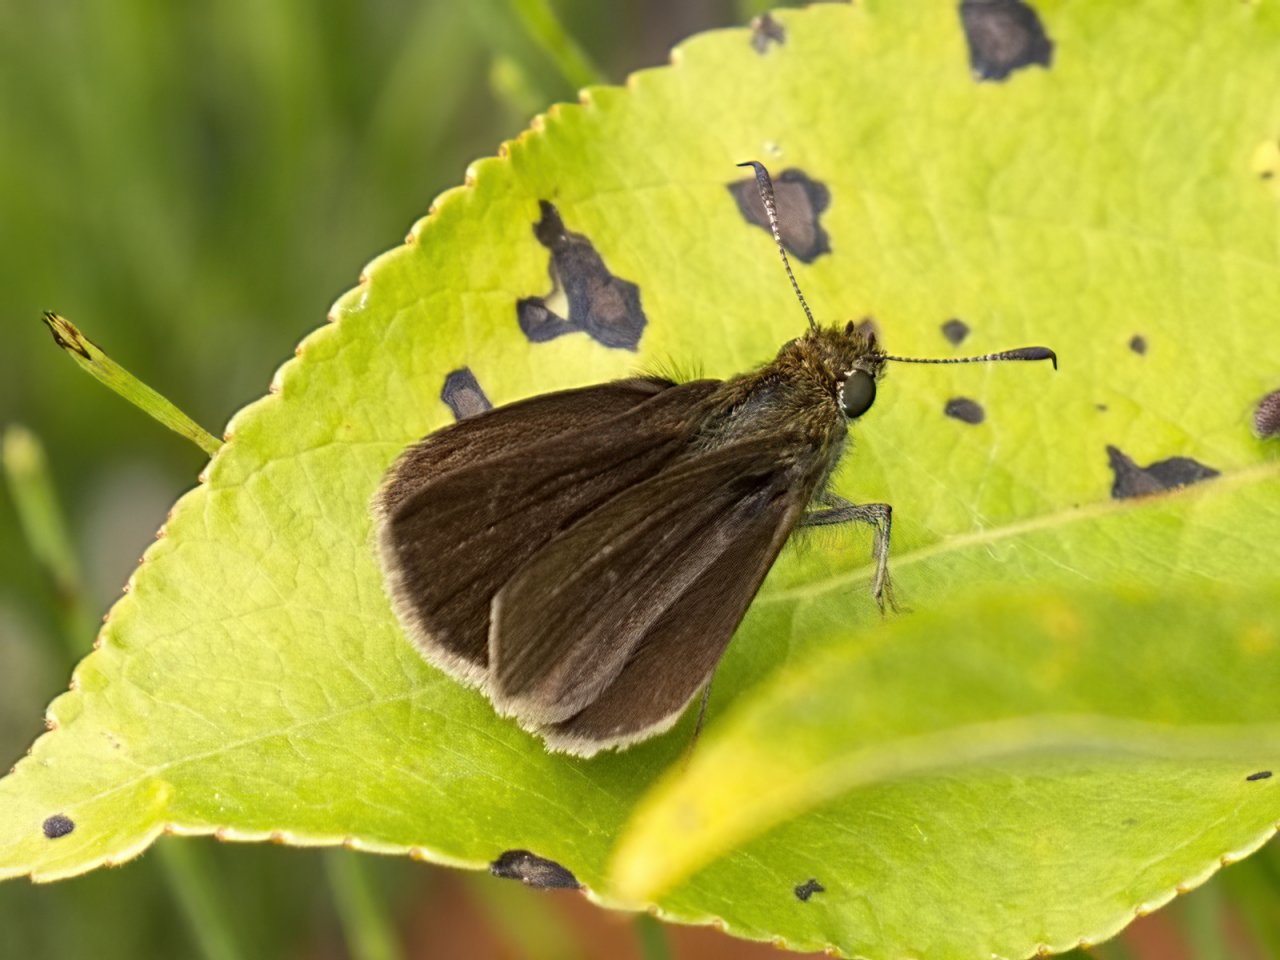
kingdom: Animalia
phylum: Arthropoda
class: Insecta
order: Lepidoptera
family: Hesperiidae
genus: Euphyes
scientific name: Euphyes vestris
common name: Dun Skipper
